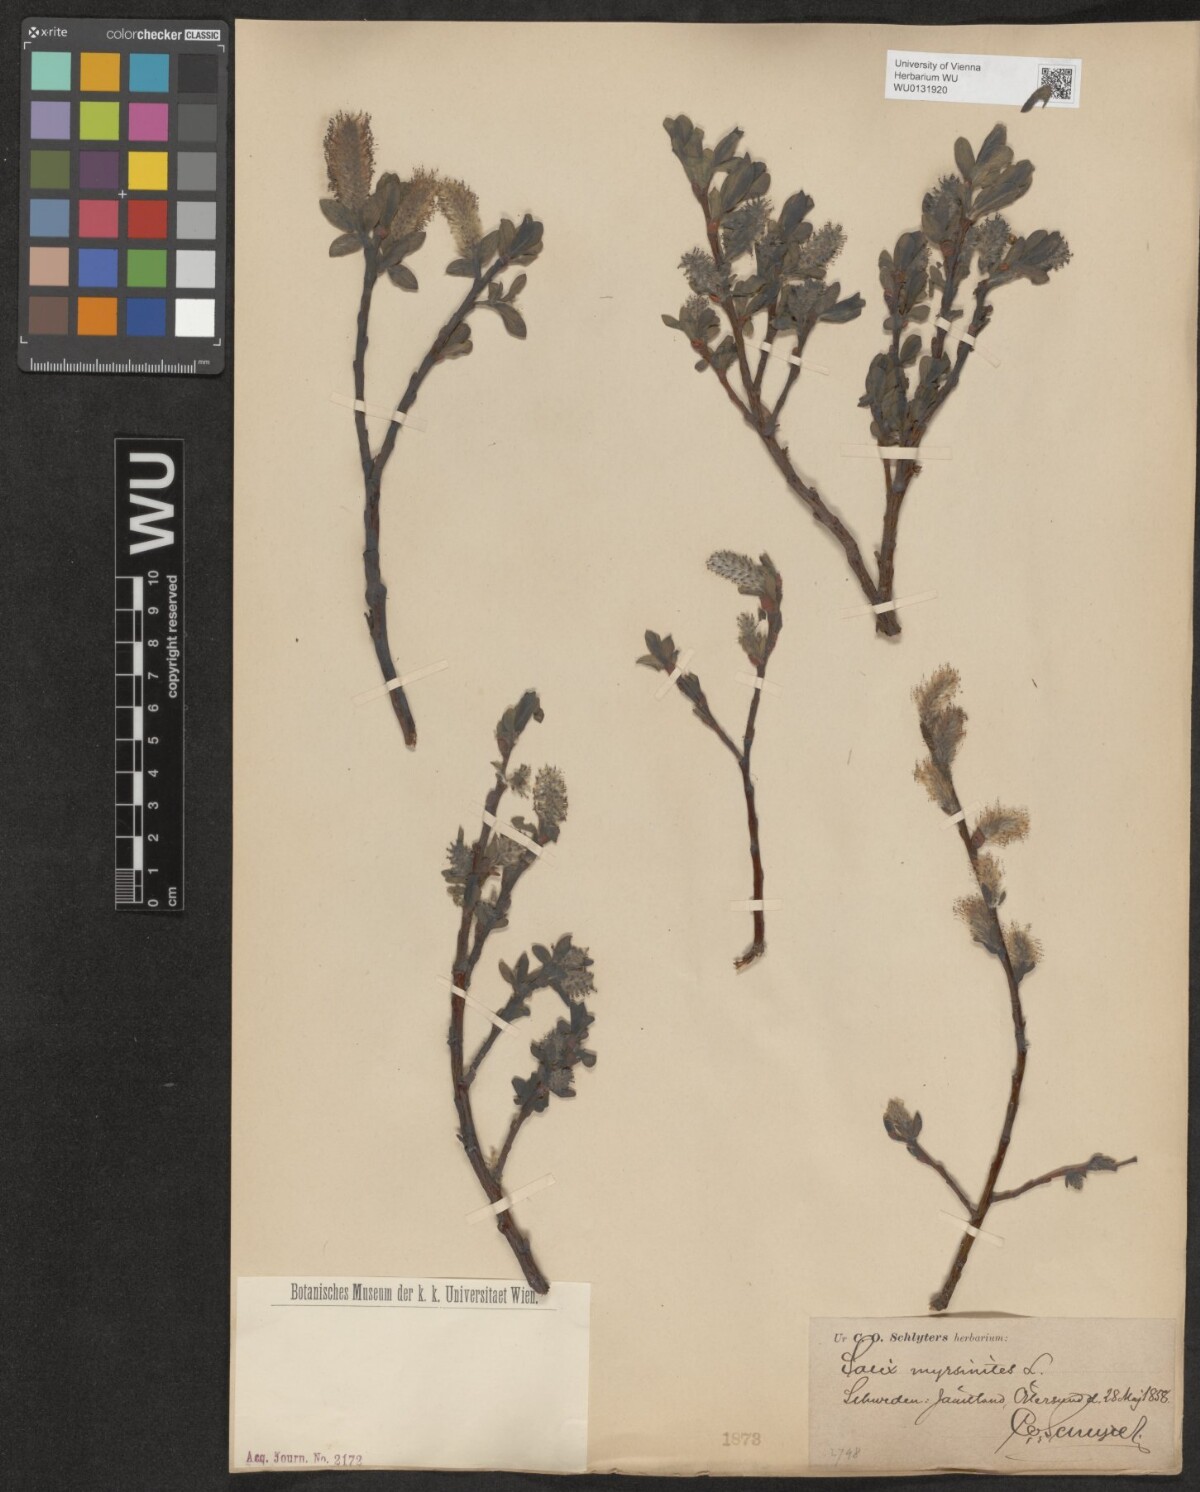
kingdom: Plantae
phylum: Tracheophyta
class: Magnoliopsida
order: Malpighiales
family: Salicaceae
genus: Salix
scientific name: Salix myrsinites
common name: Myrtle willow
